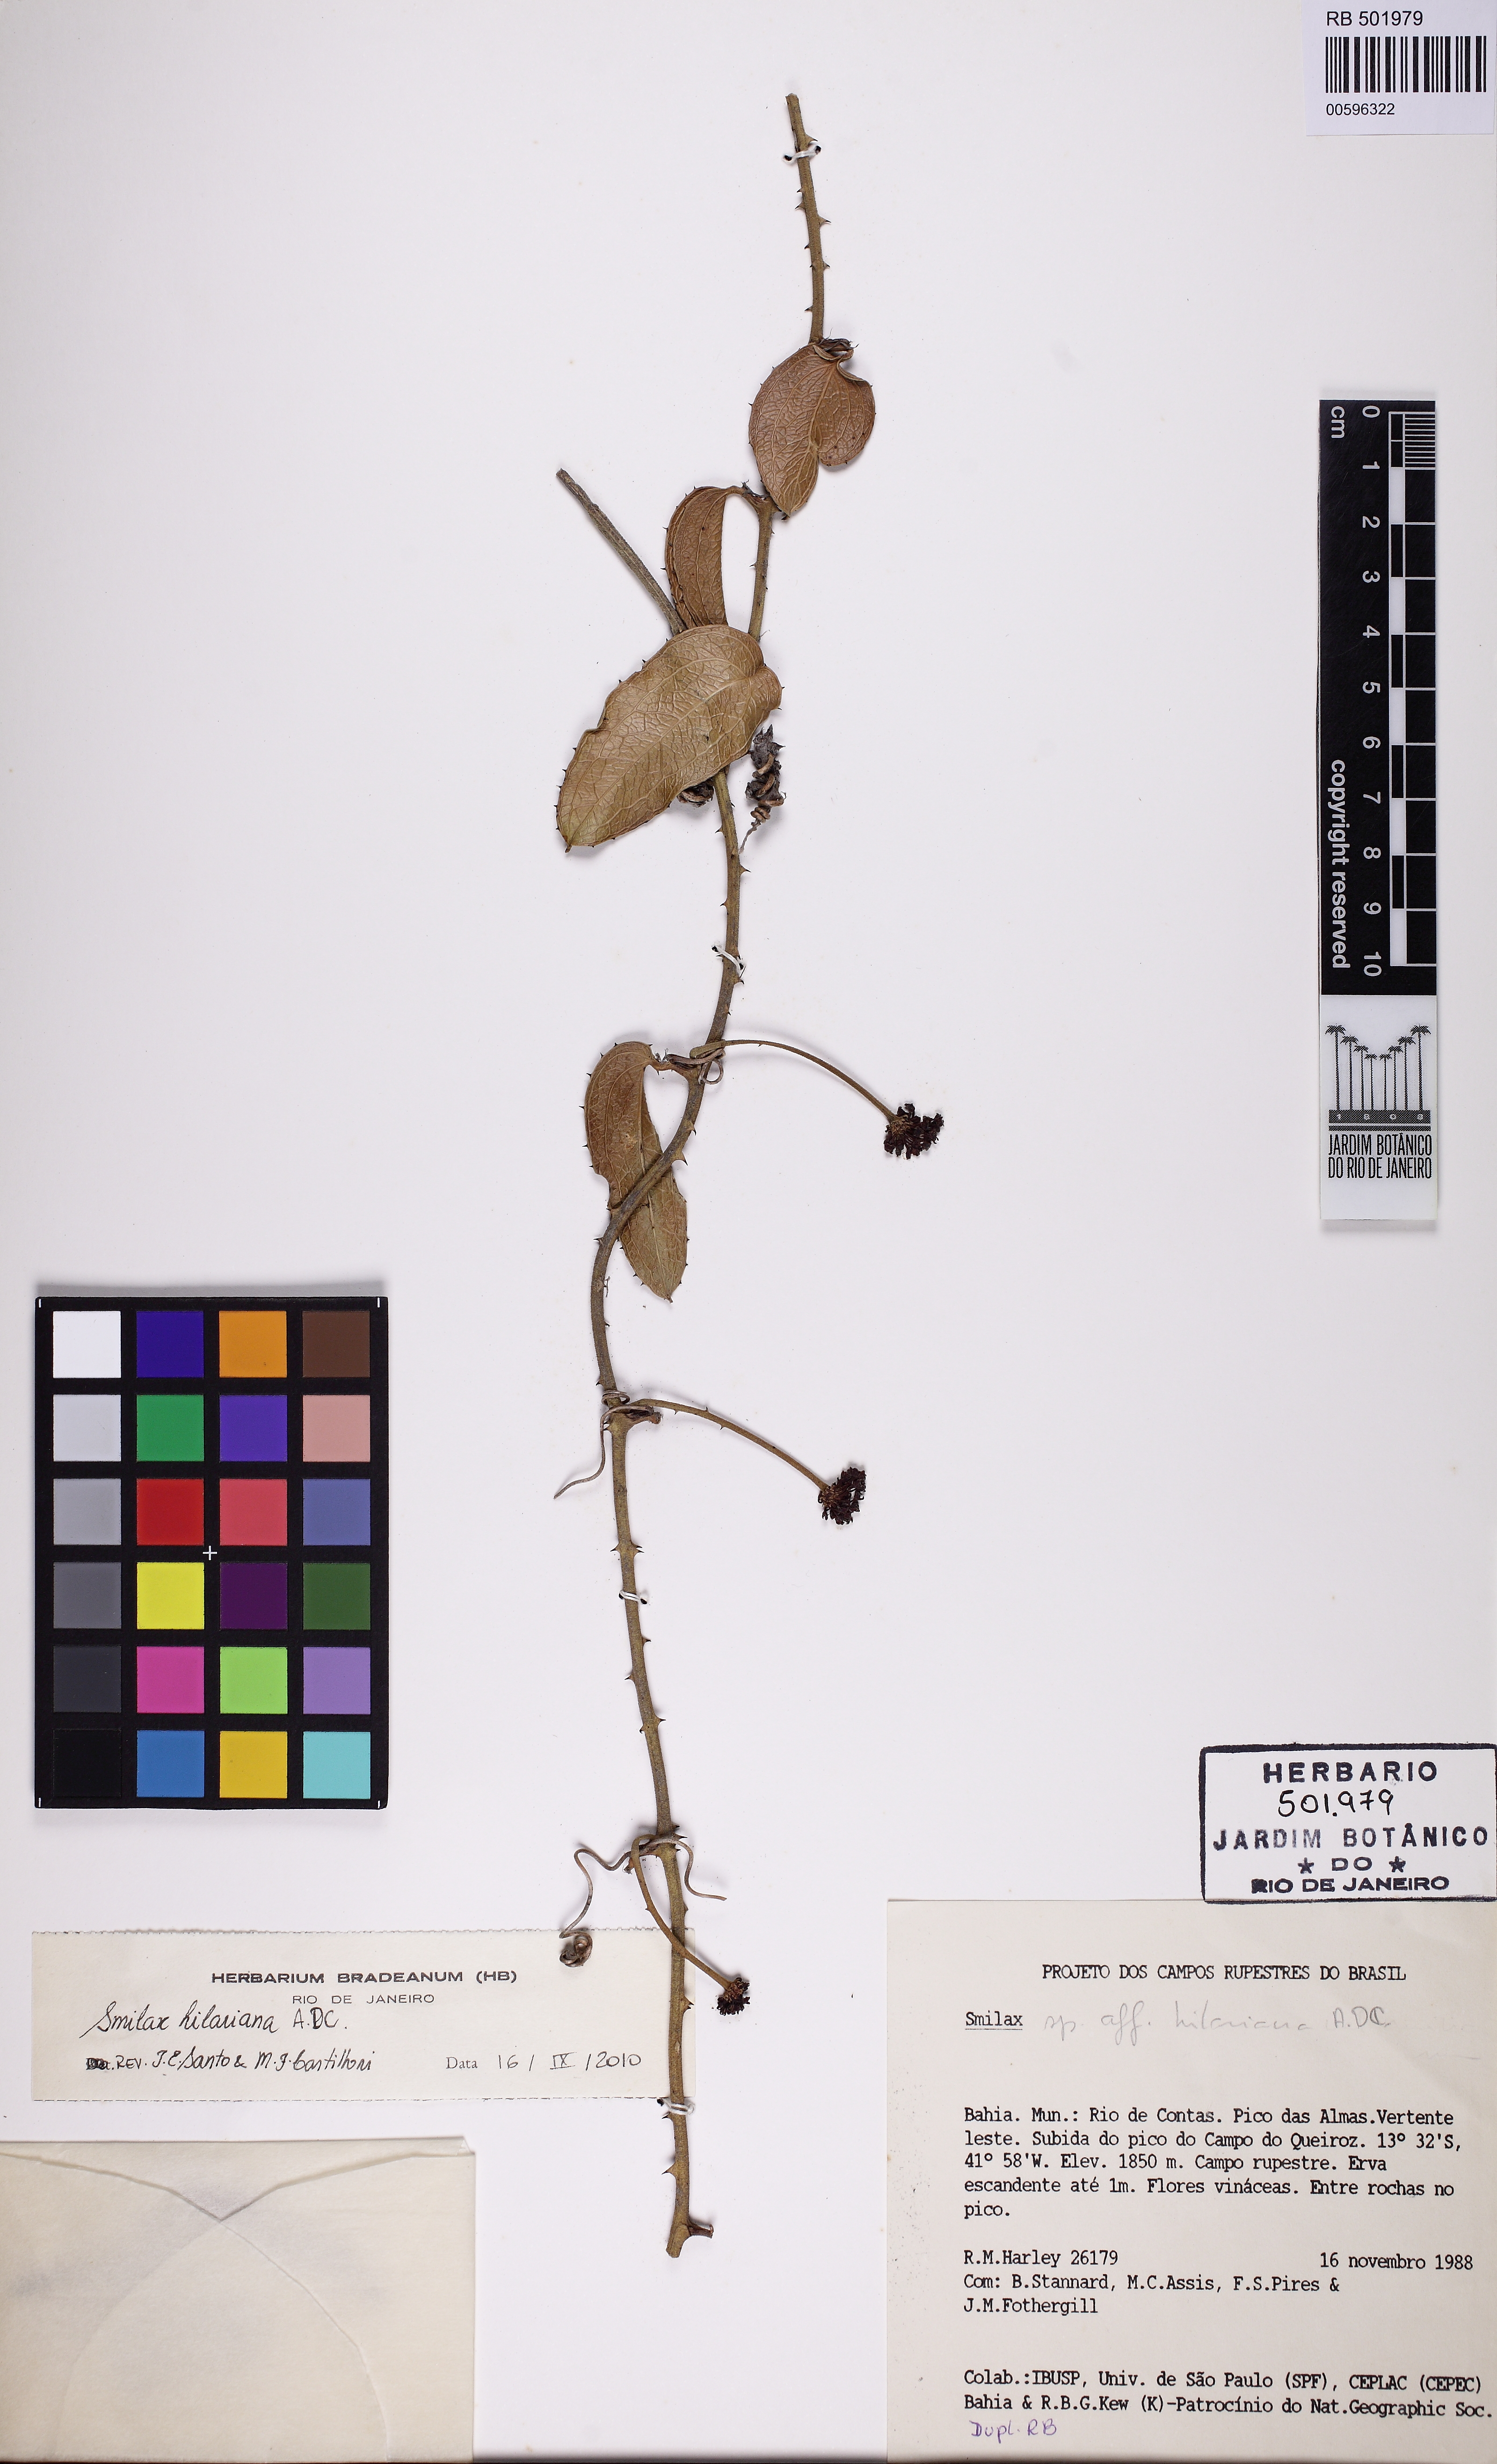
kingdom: Plantae
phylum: Tracheophyta
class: Liliopsida
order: Liliales
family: Smilacaceae
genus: Smilax
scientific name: Smilax hilariana
